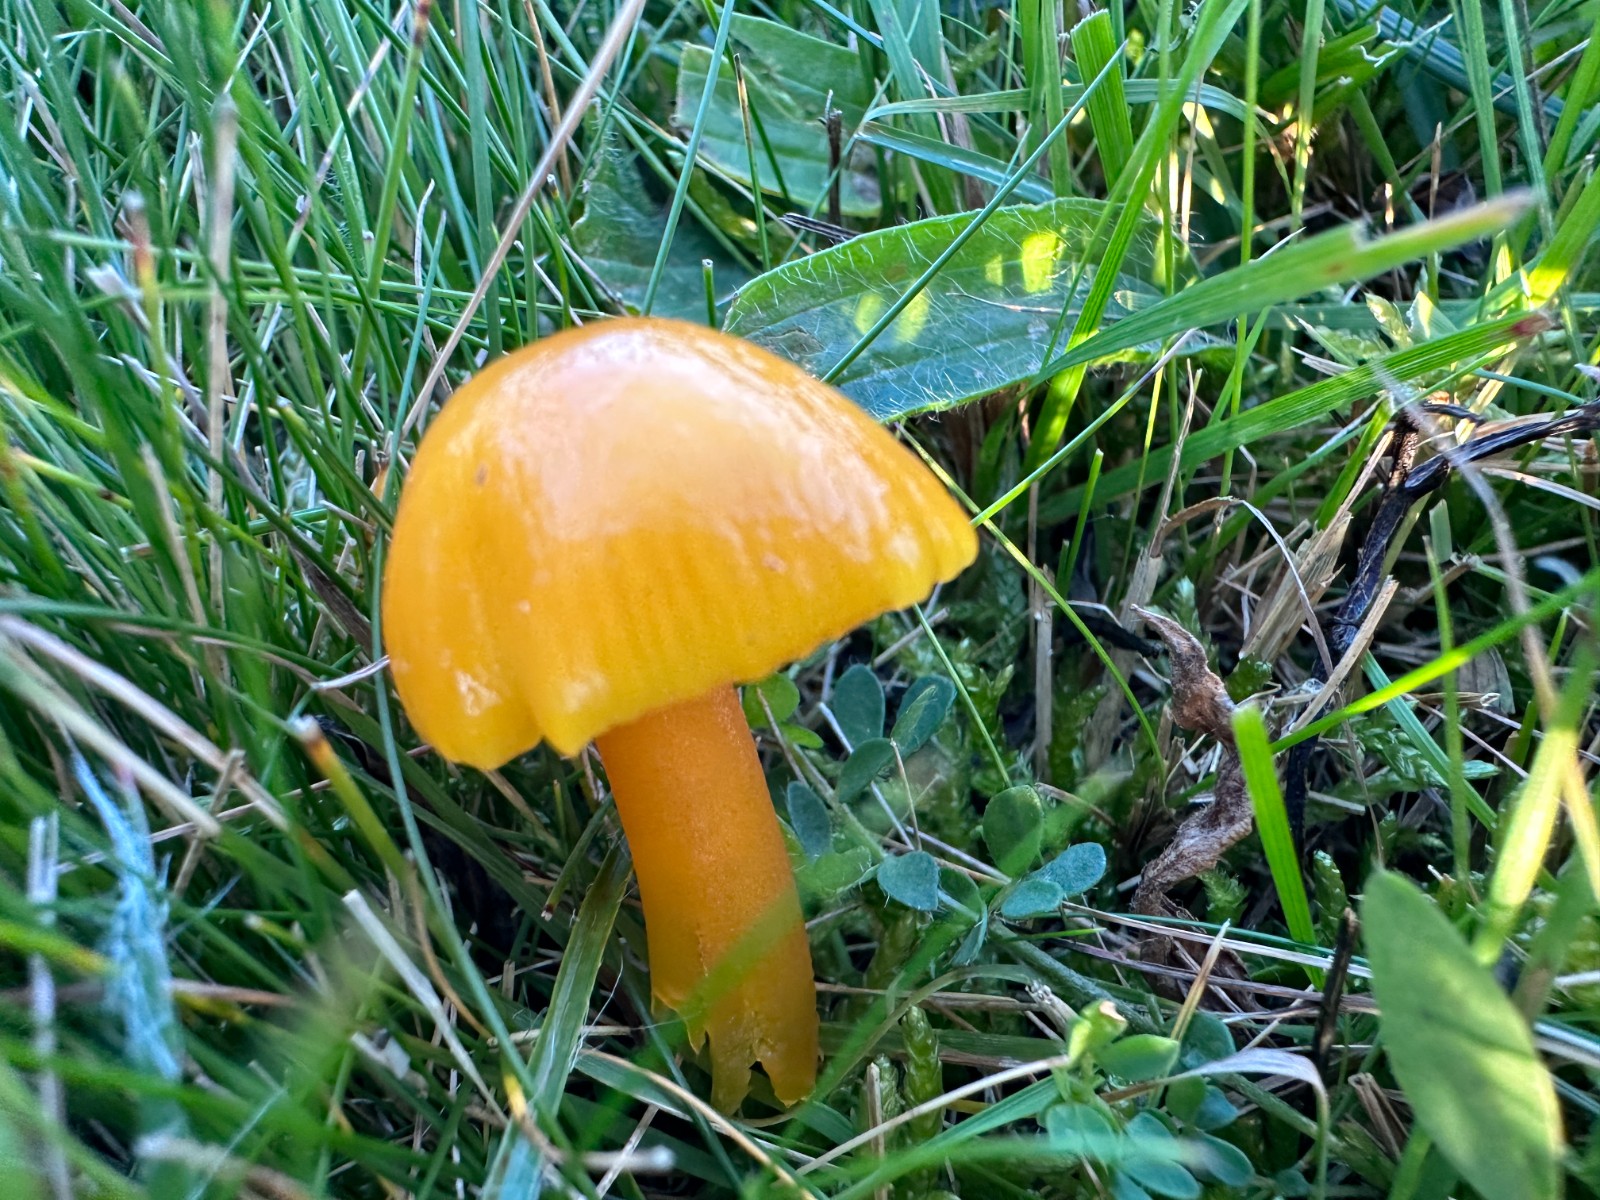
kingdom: Fungi
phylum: Basidiomycota
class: Agaricomycetes
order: Agaricales
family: Hygrophoraceae
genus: Hygrocybe
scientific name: Hygrocybe chlorophana
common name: gul vokshat
